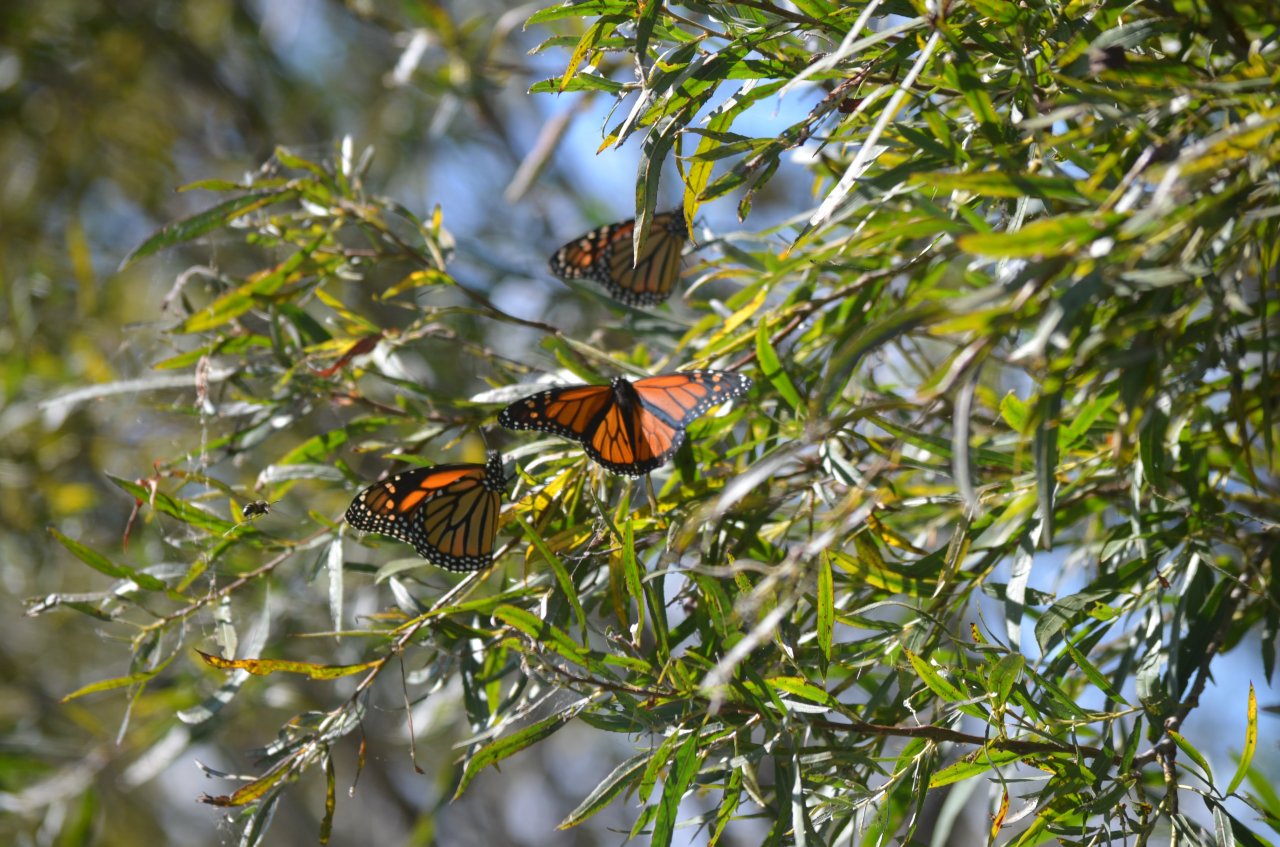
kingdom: Animalia
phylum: Arthropoda
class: Insecta
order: Lepidoptera
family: Nymphalidae
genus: Danaus
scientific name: Danaus plexippus
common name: Monarch
